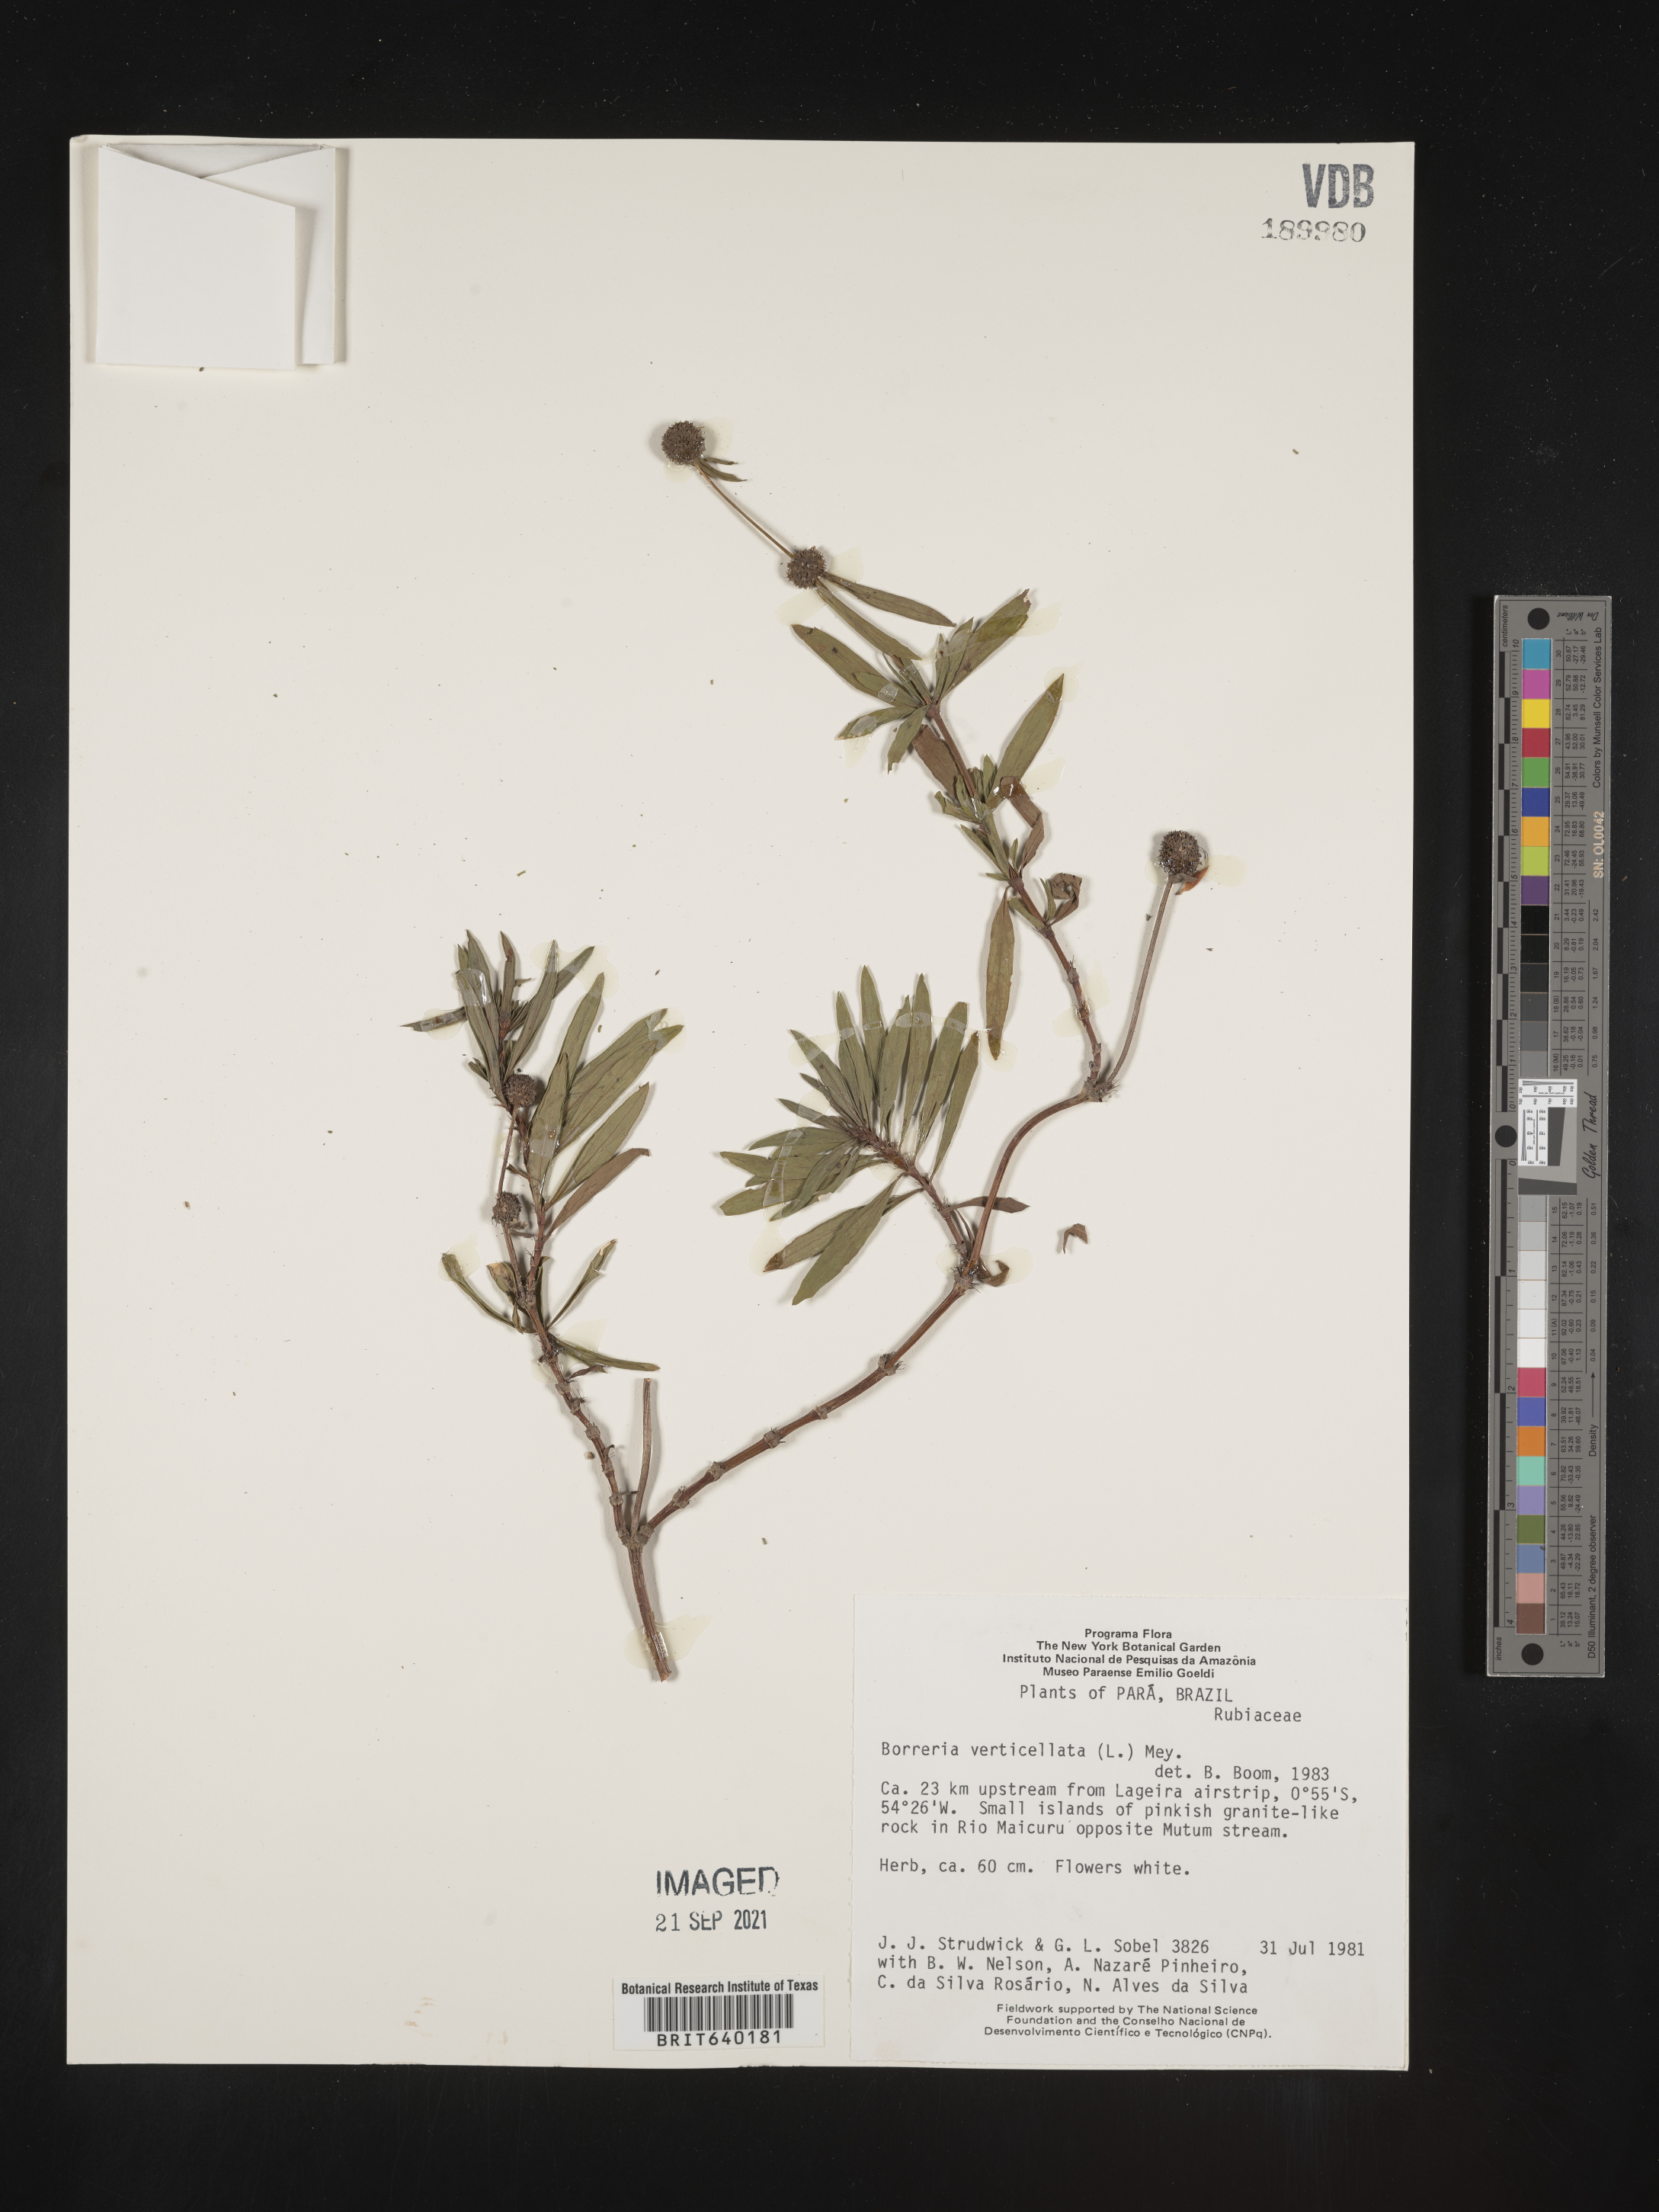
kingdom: Plantae
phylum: Tracheophyta
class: Magnoliopsida
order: Gentianales
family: Rubiaceae
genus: Spermacoce
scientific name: Spermacoce
